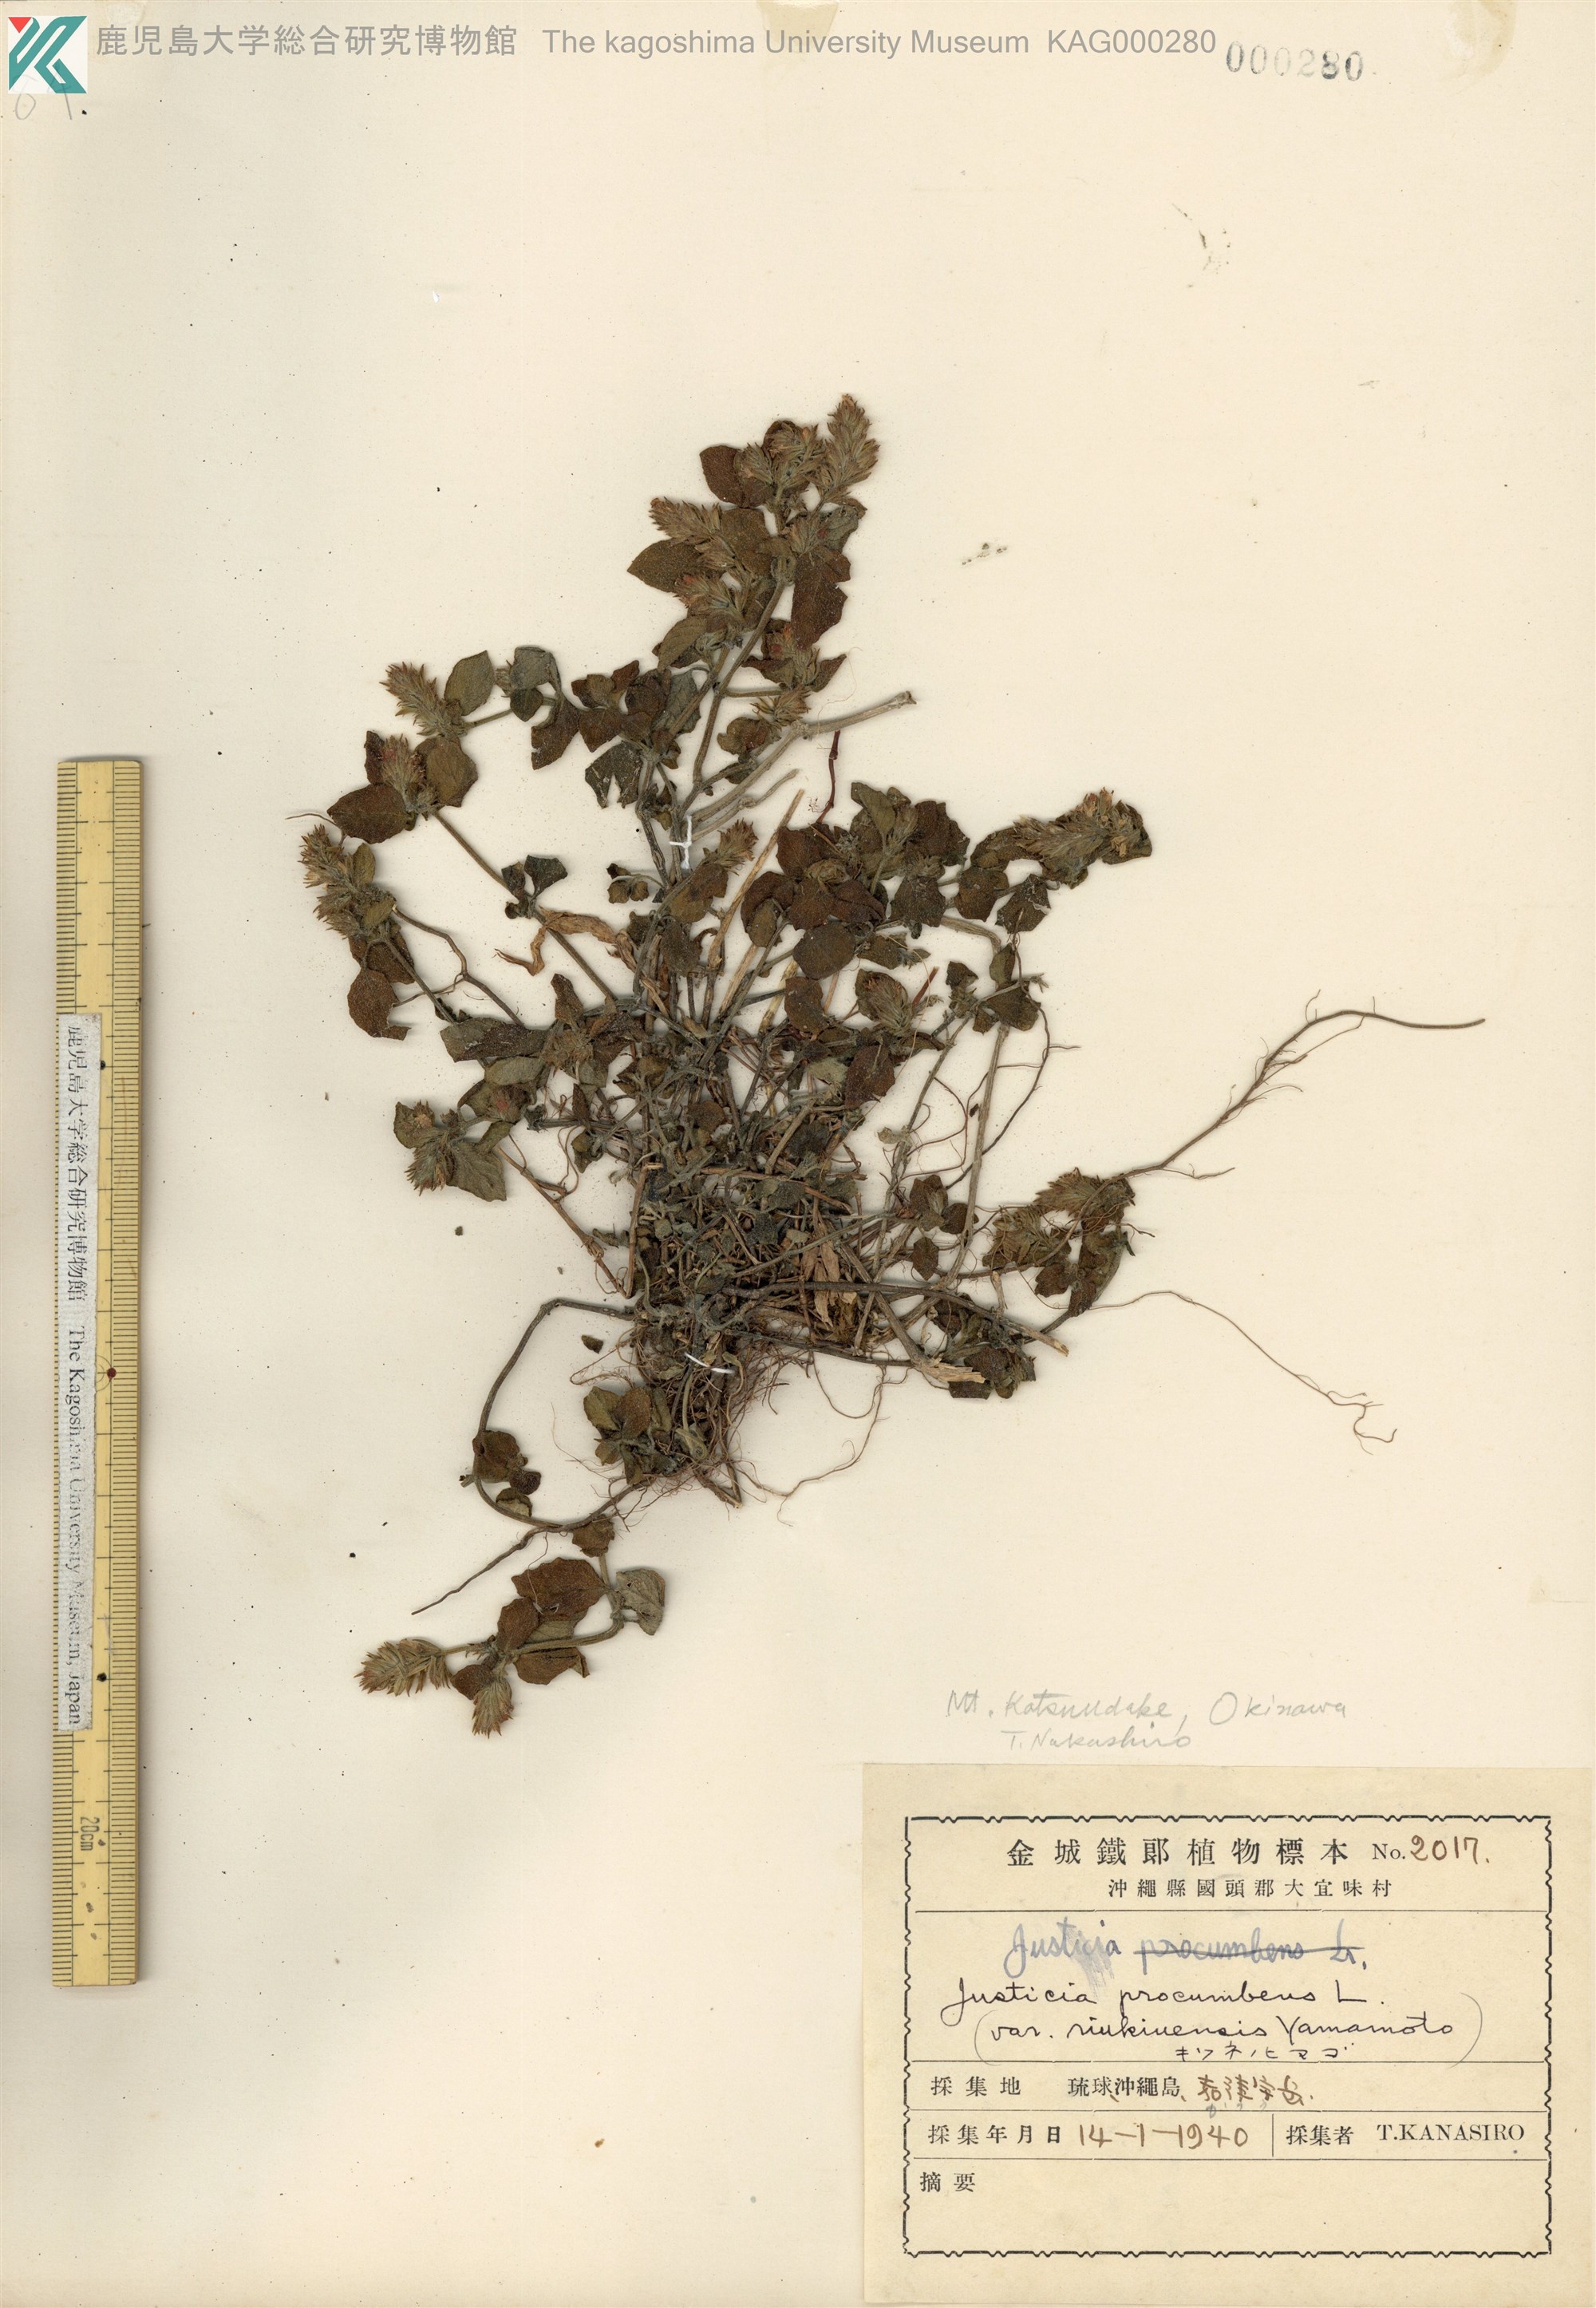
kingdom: Plantae
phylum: Tracheophyta
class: Magnoliopsida
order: Lamiales
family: Acanthaceae
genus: Rostellularia
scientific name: Rostellularia procumbens
